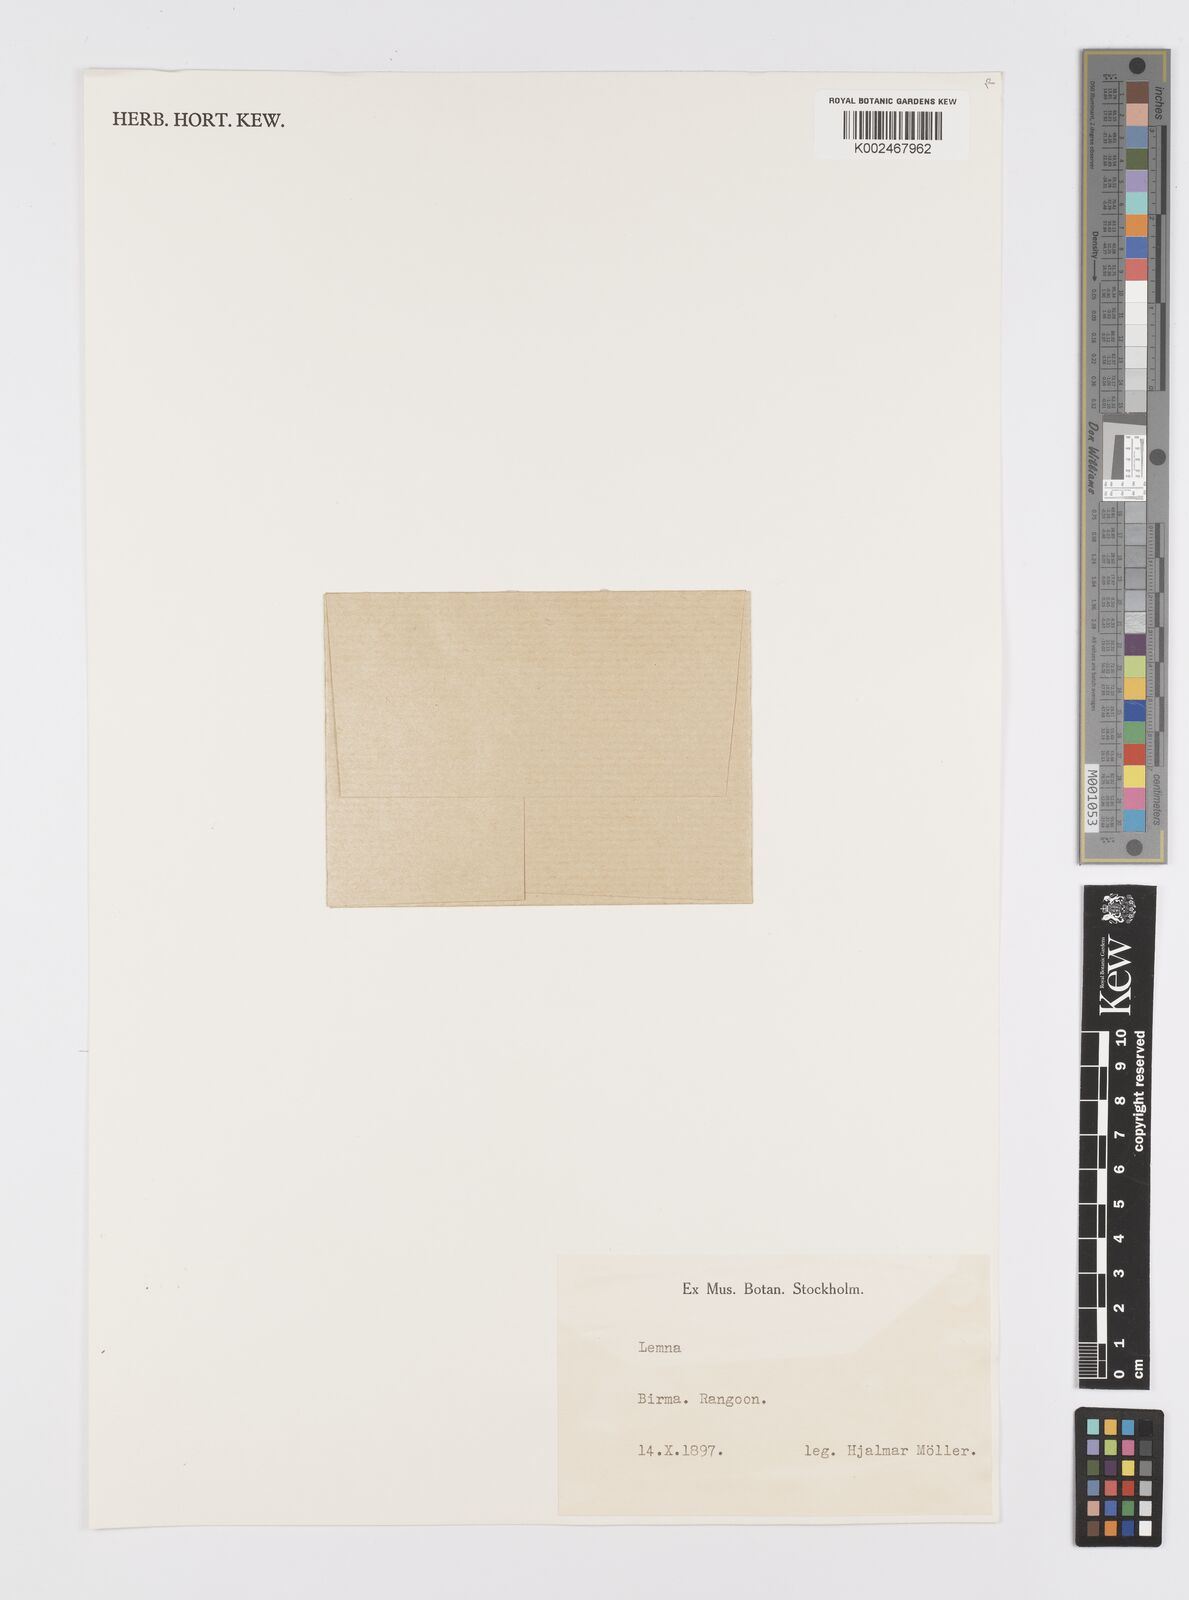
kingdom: Plantae
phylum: Tracheophyta
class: Liliopsida
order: Alismatales
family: Araceae
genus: Lemna
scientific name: Lemna
